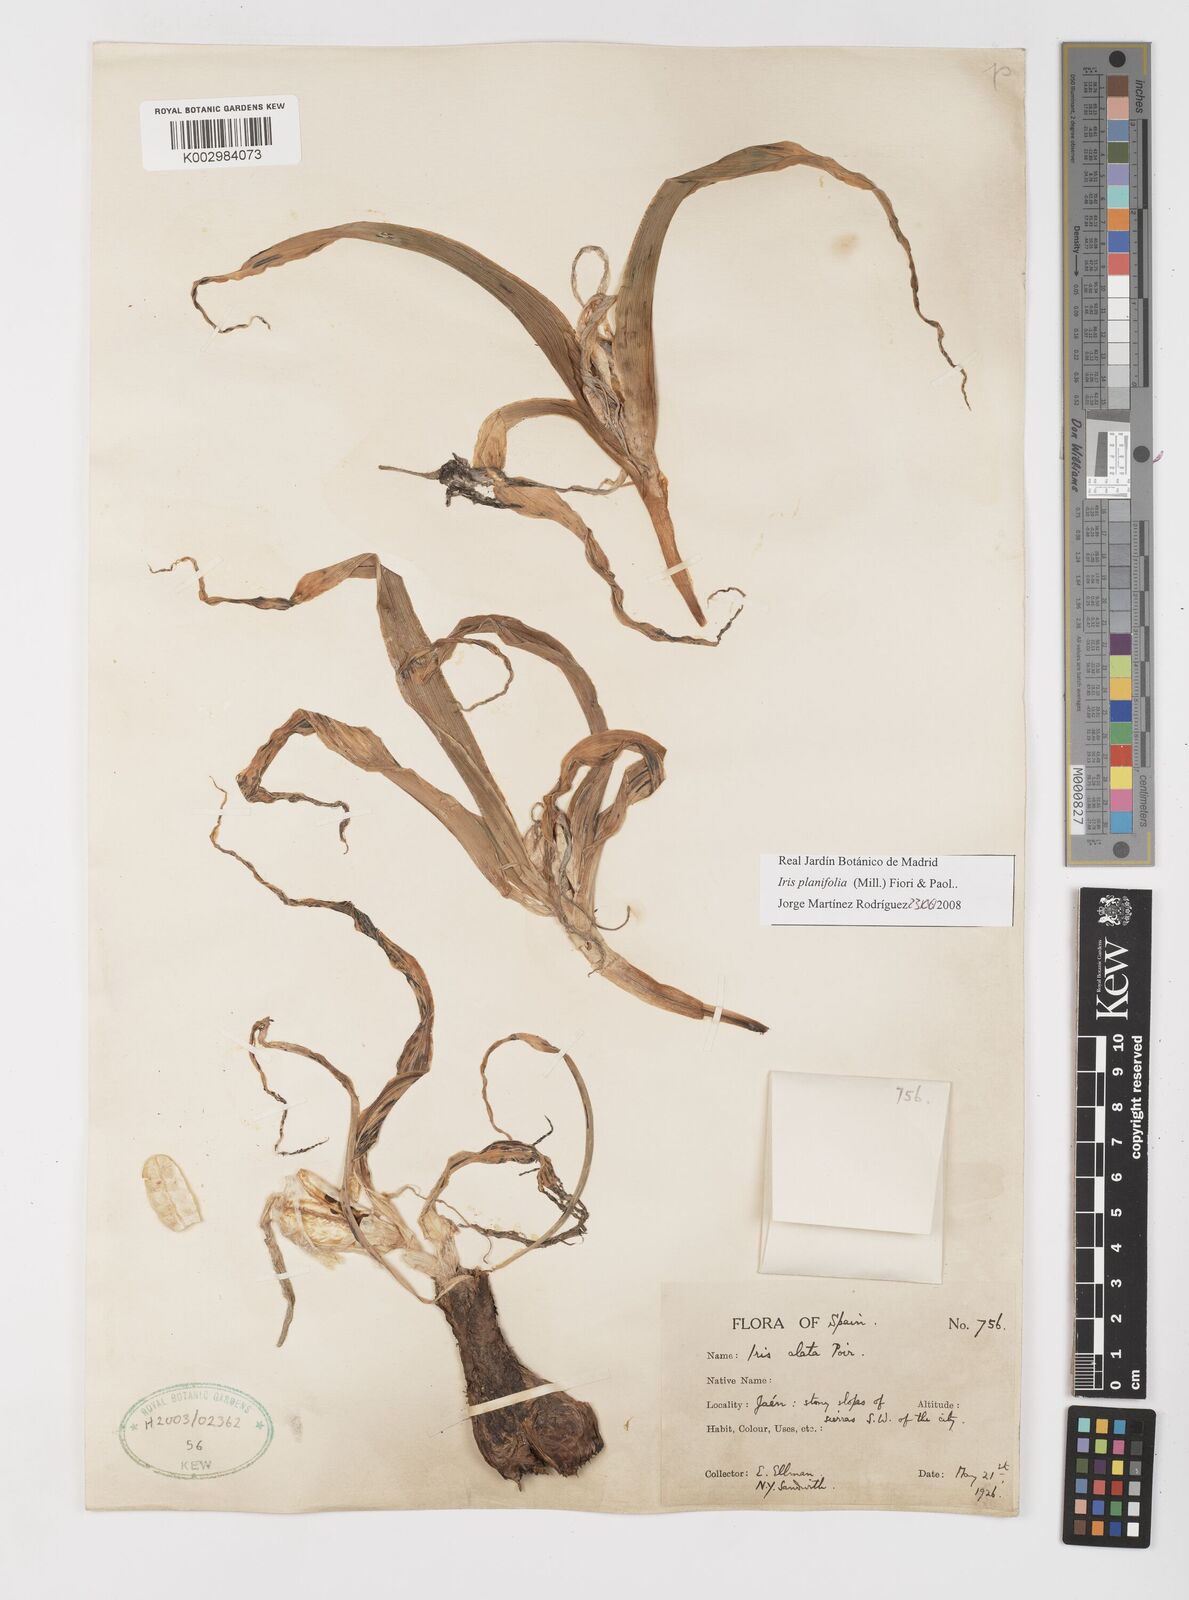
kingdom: Plantae
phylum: Tracheophyta
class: Liliopsida
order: Asparagales
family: Iridaceae
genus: Iris
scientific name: Iris planifolia
